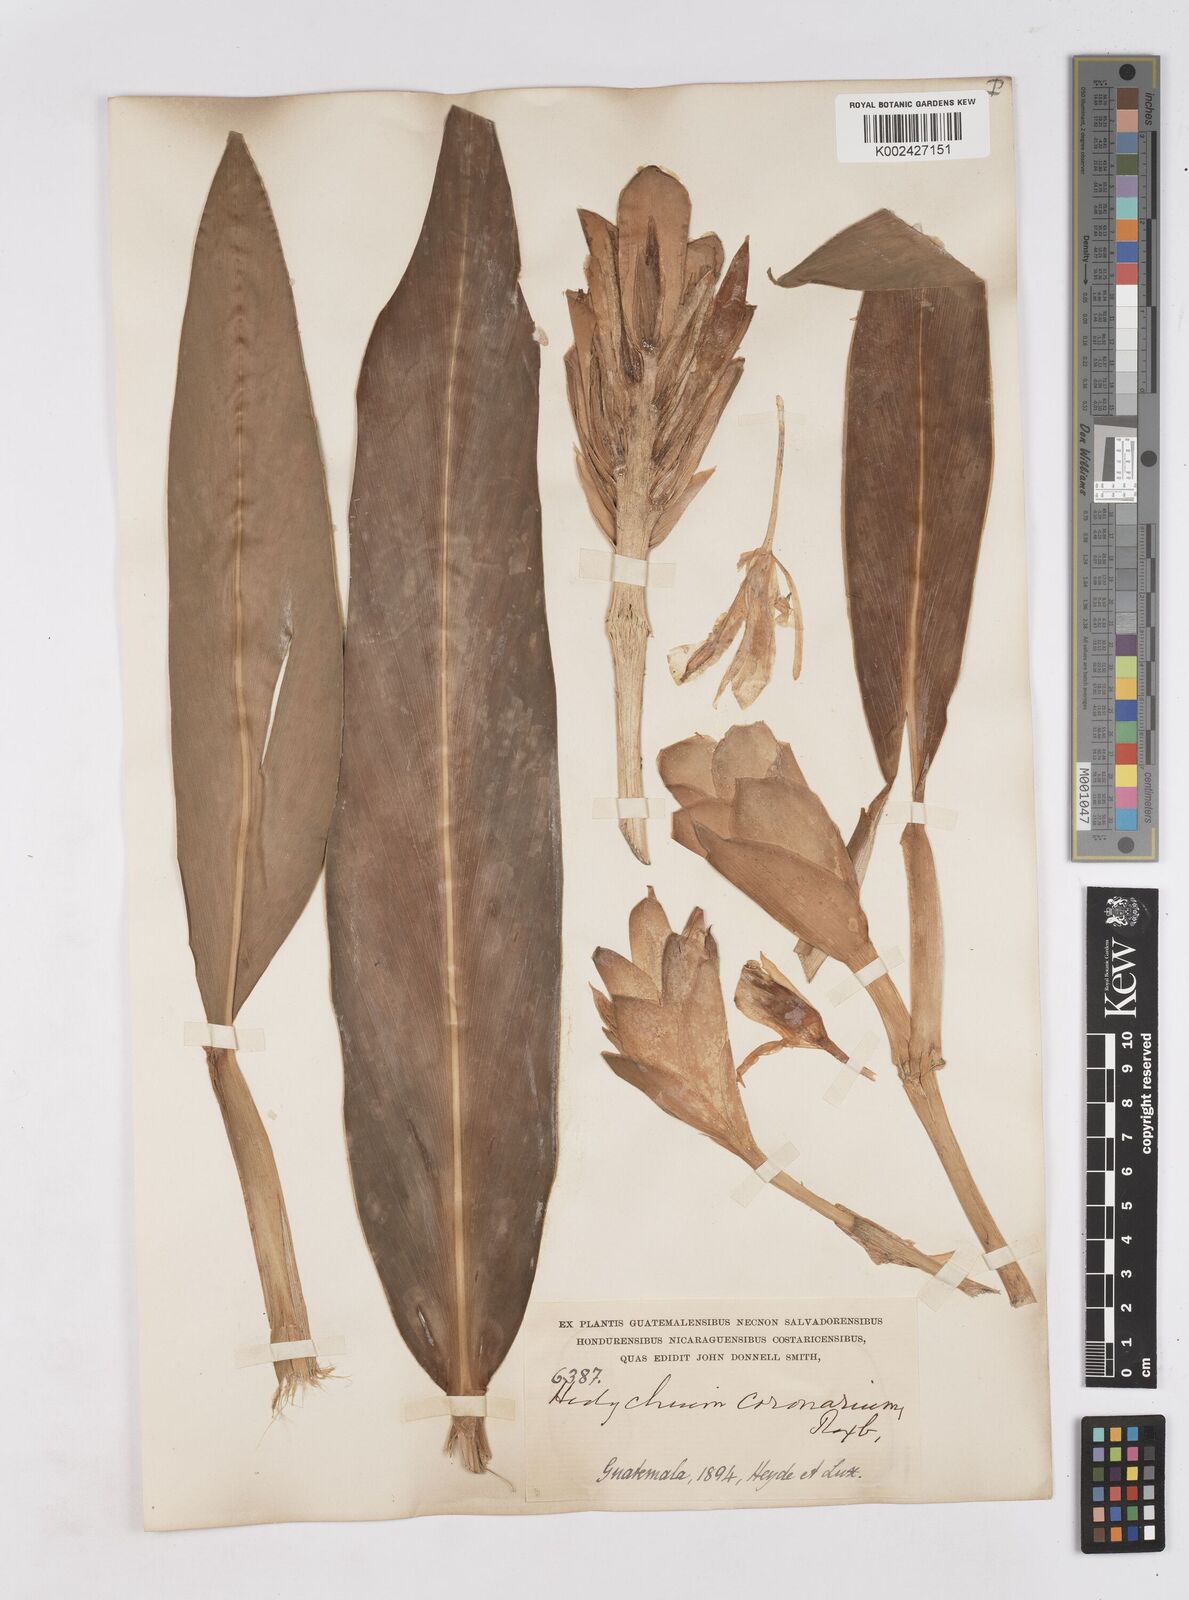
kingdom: Plantae
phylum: Tracheophyta
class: Liliopsida
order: Zingiberales
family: Zingiberaceae
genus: Hedychium
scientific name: Hedychium coronarium
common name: White garland-lily
